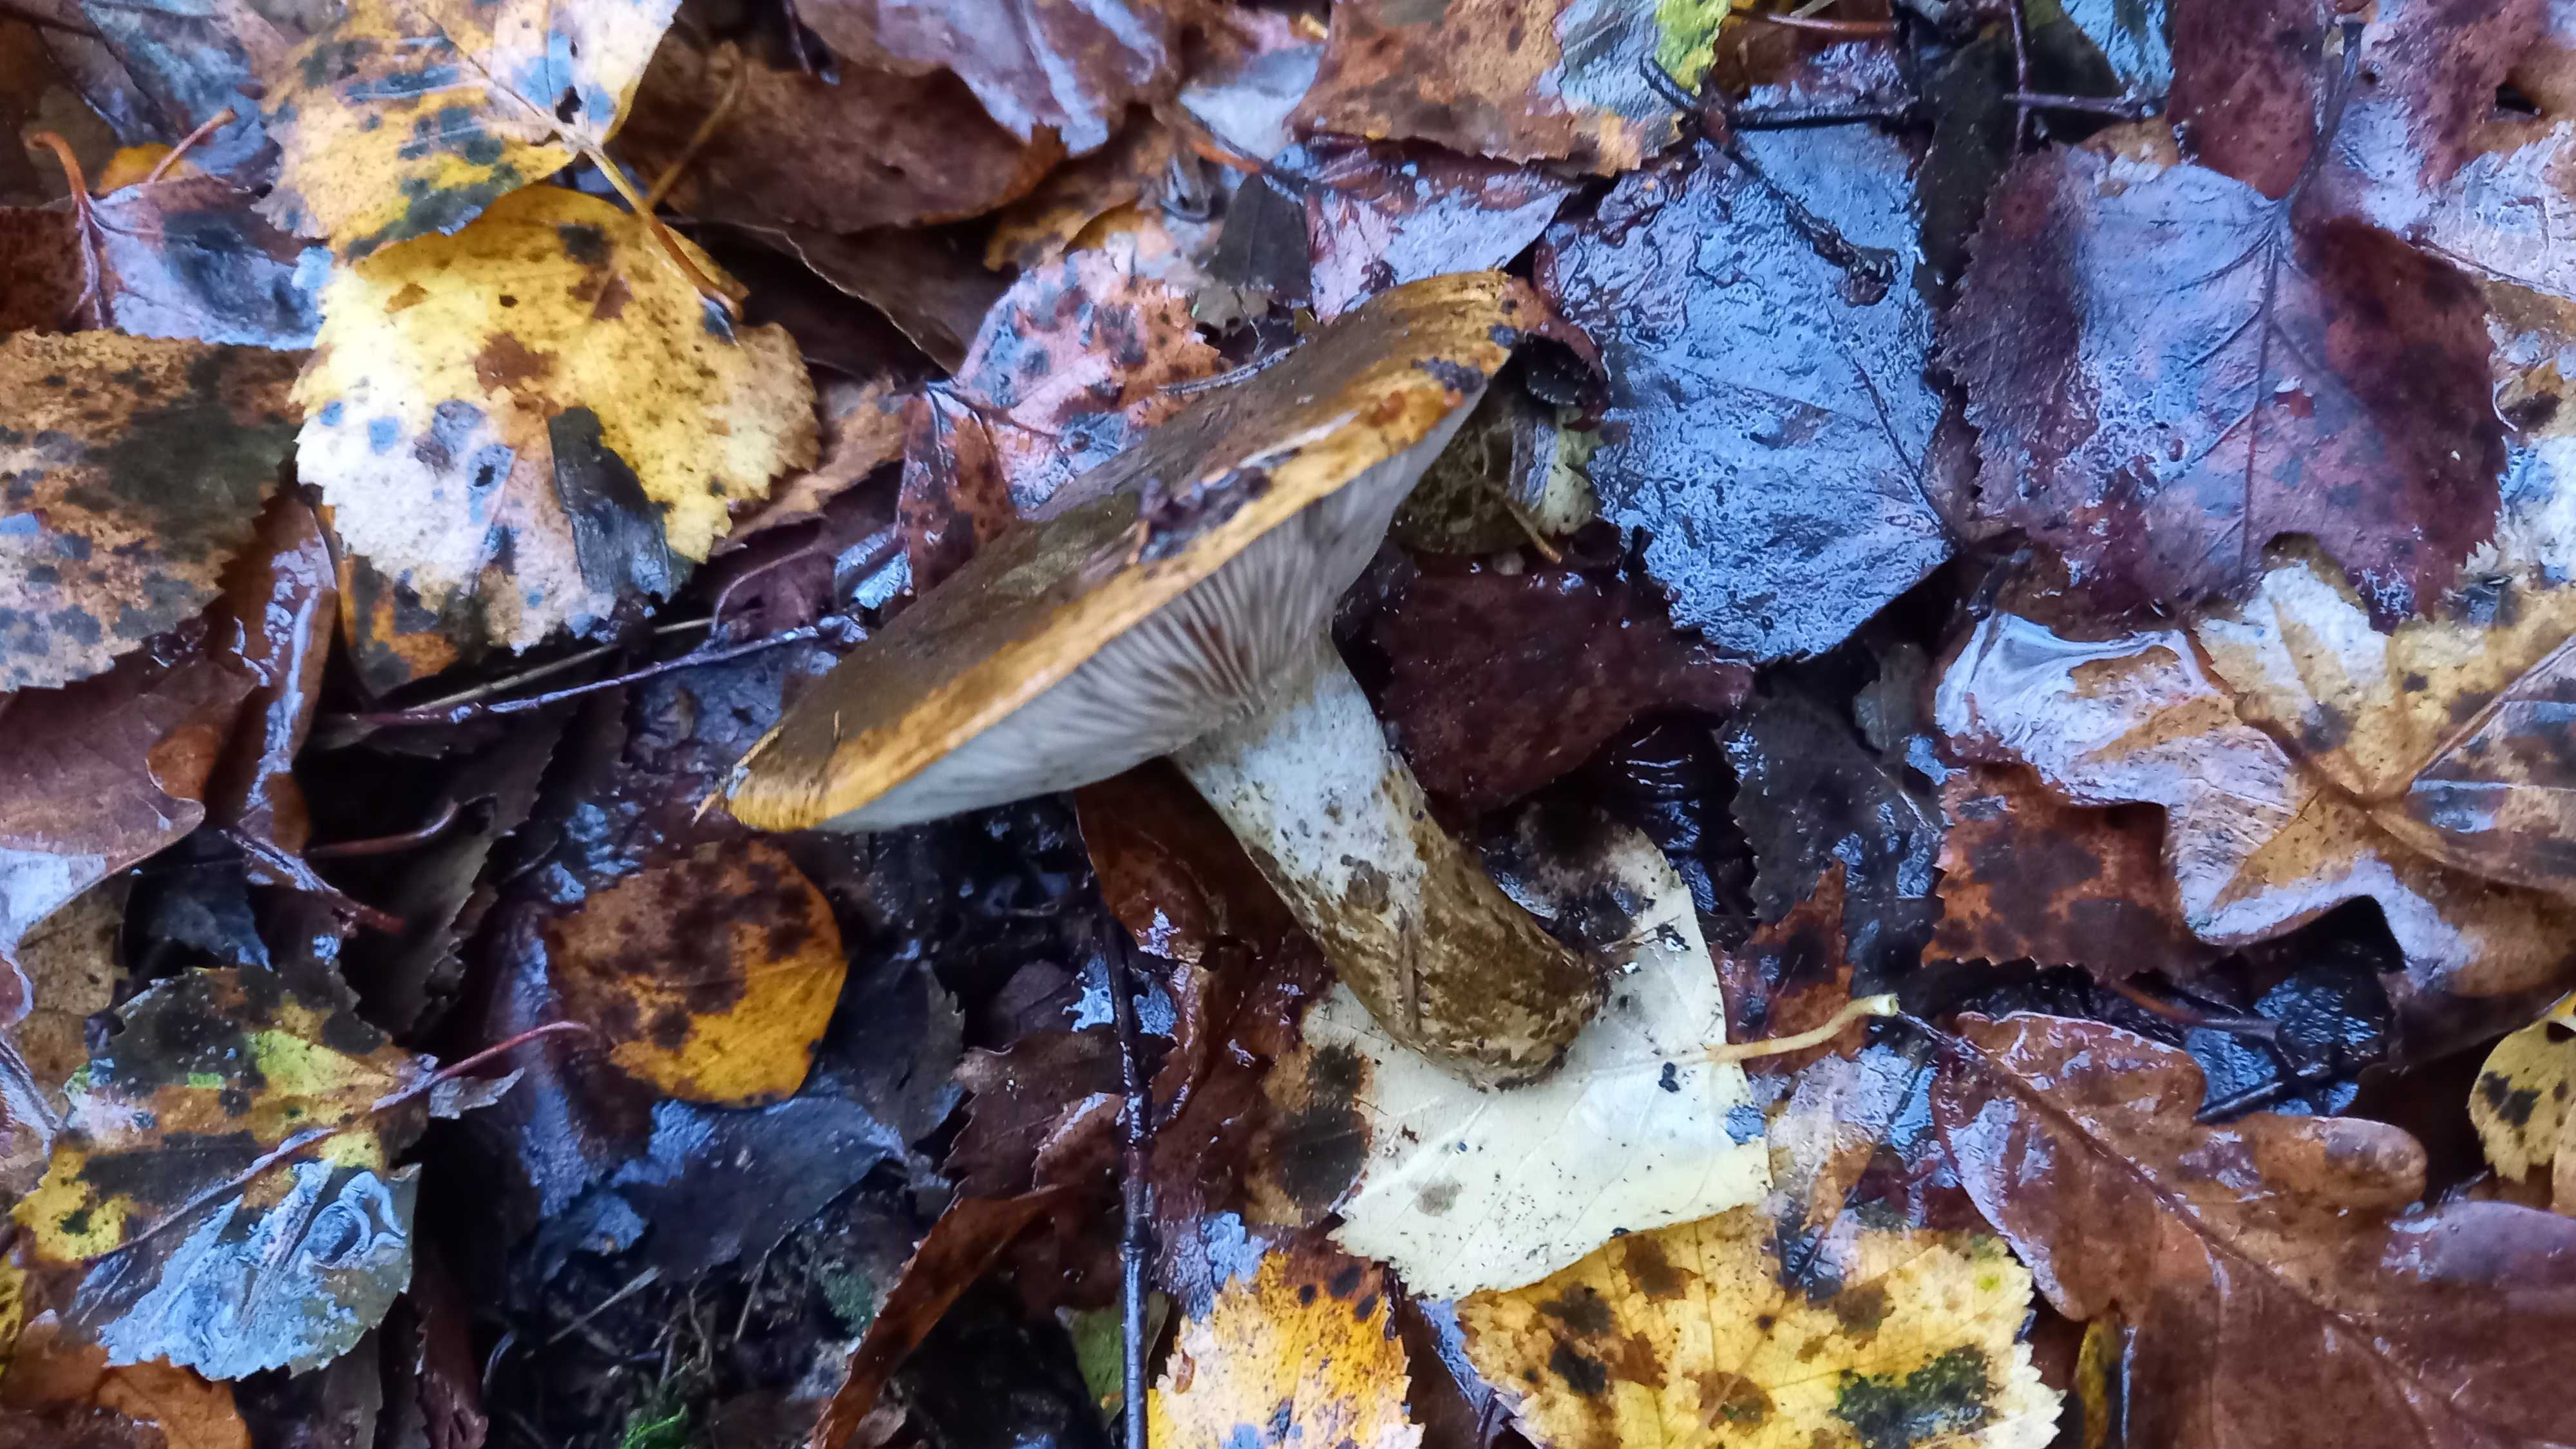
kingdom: Fungi
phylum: Basidiomycota
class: Agaricomycetes
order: Russulales
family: Russulaceae
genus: Lactarius
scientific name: Lactarius necator
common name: manddraber-mælkehat
